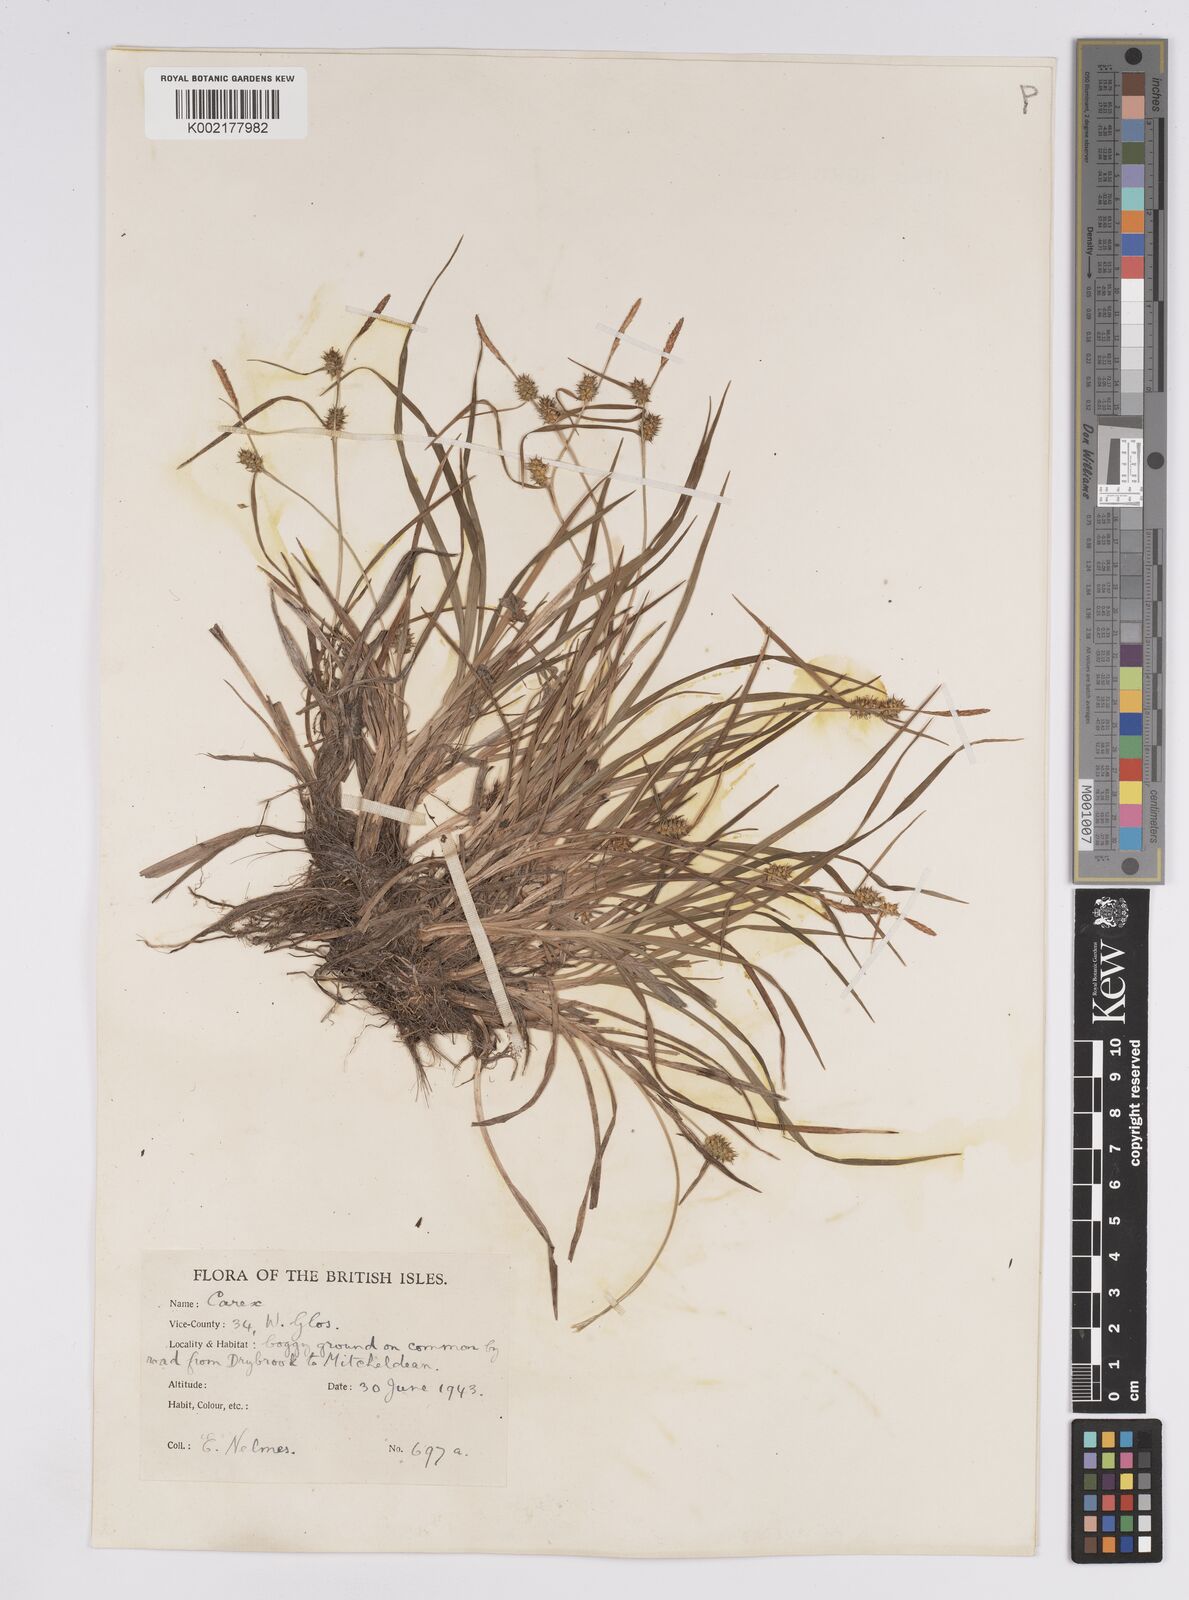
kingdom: Plantae
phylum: Tracheophyta
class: Liliopsida
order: Poales
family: Cyperaceae
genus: Carex
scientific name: Carex demissa
